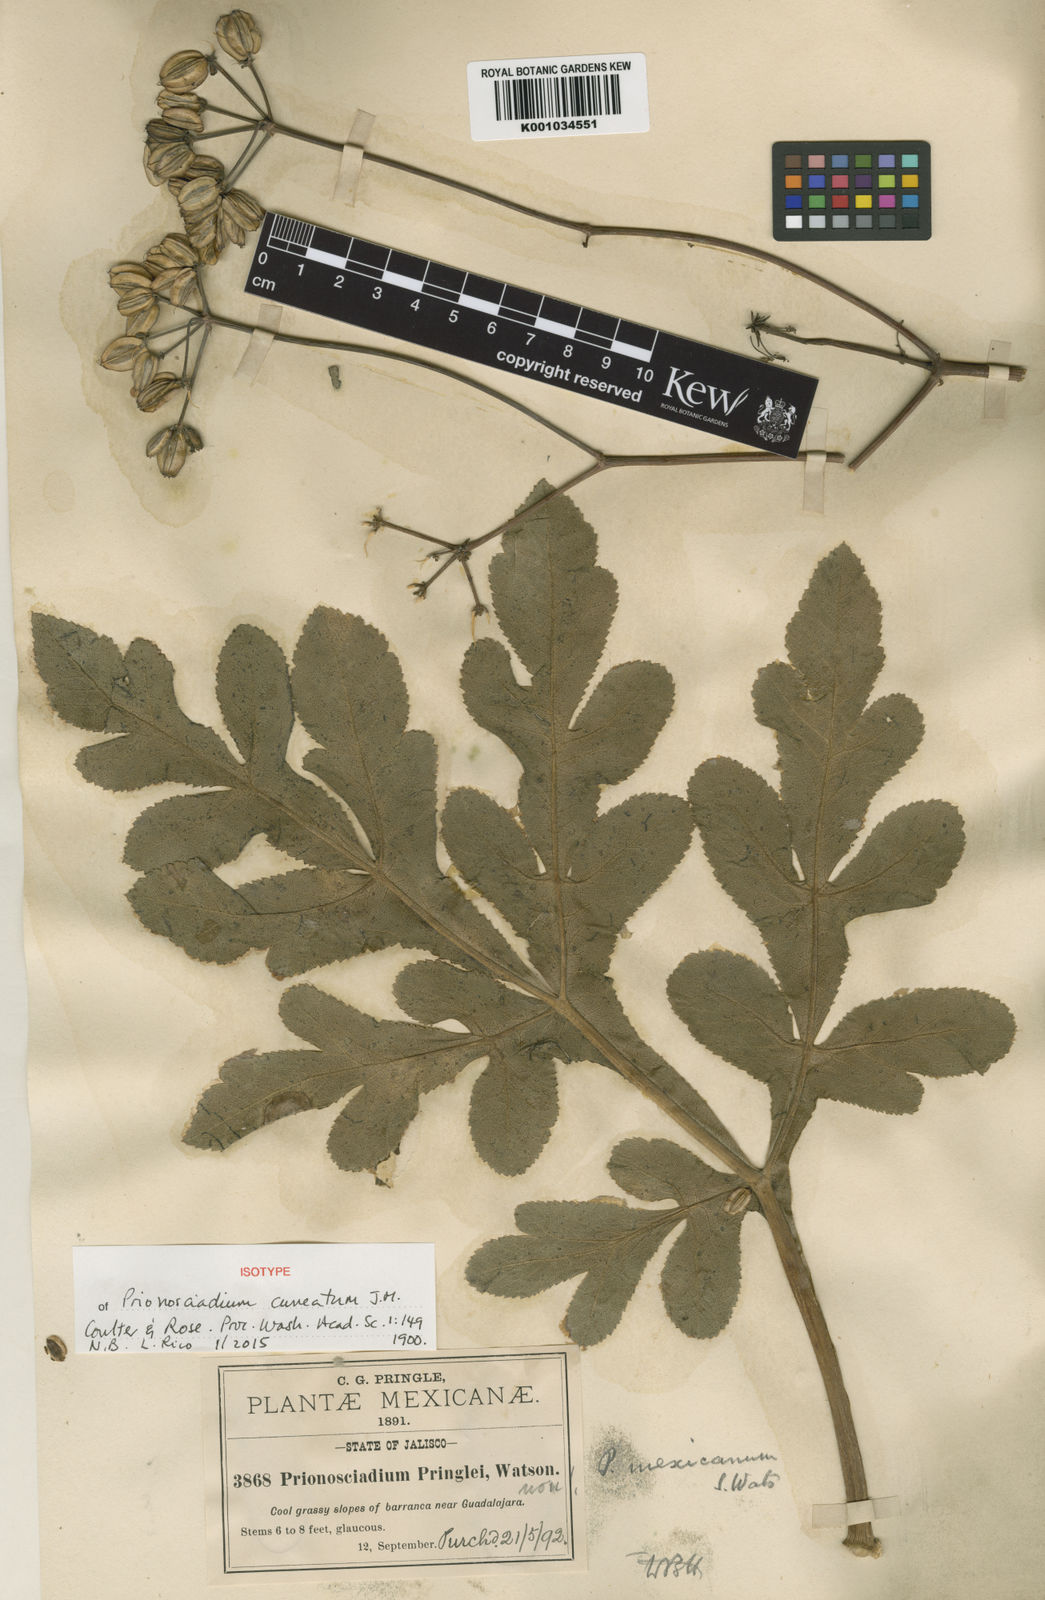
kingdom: Plantae
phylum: Tracheophyta
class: Magnoliopsida
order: Fabales
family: Fabaceae
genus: Phaseolus
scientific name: Phaseolus lunatus
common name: Sieva bean
